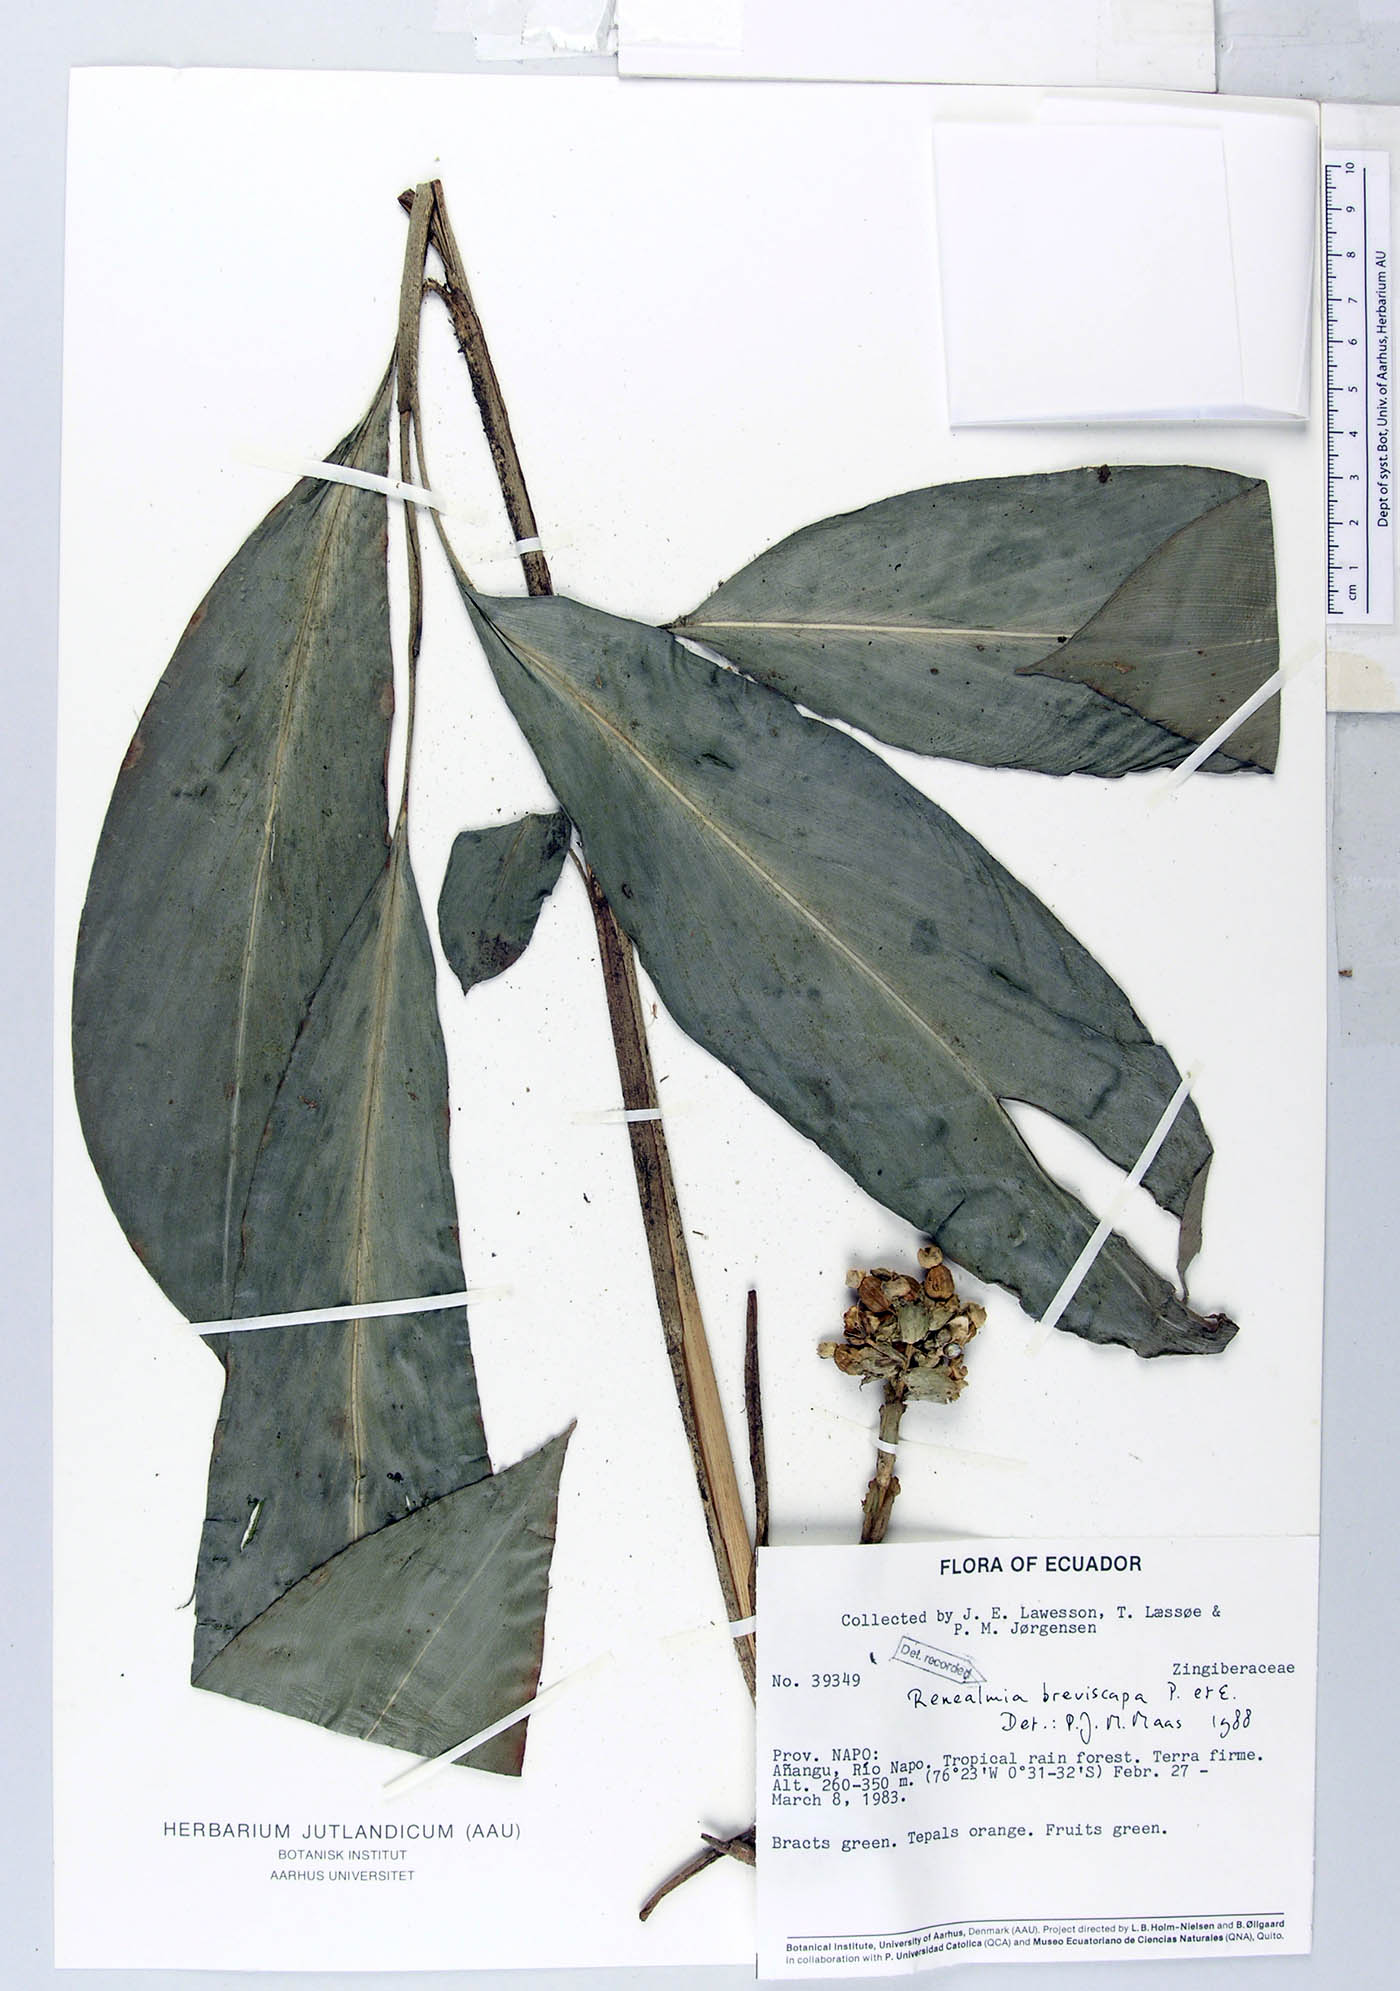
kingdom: Plantae
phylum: Tracheophyta
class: Liliopsida
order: Zingiberales
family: Zingiberaceae
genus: Renealmia
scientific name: Renealmia breviscapa
